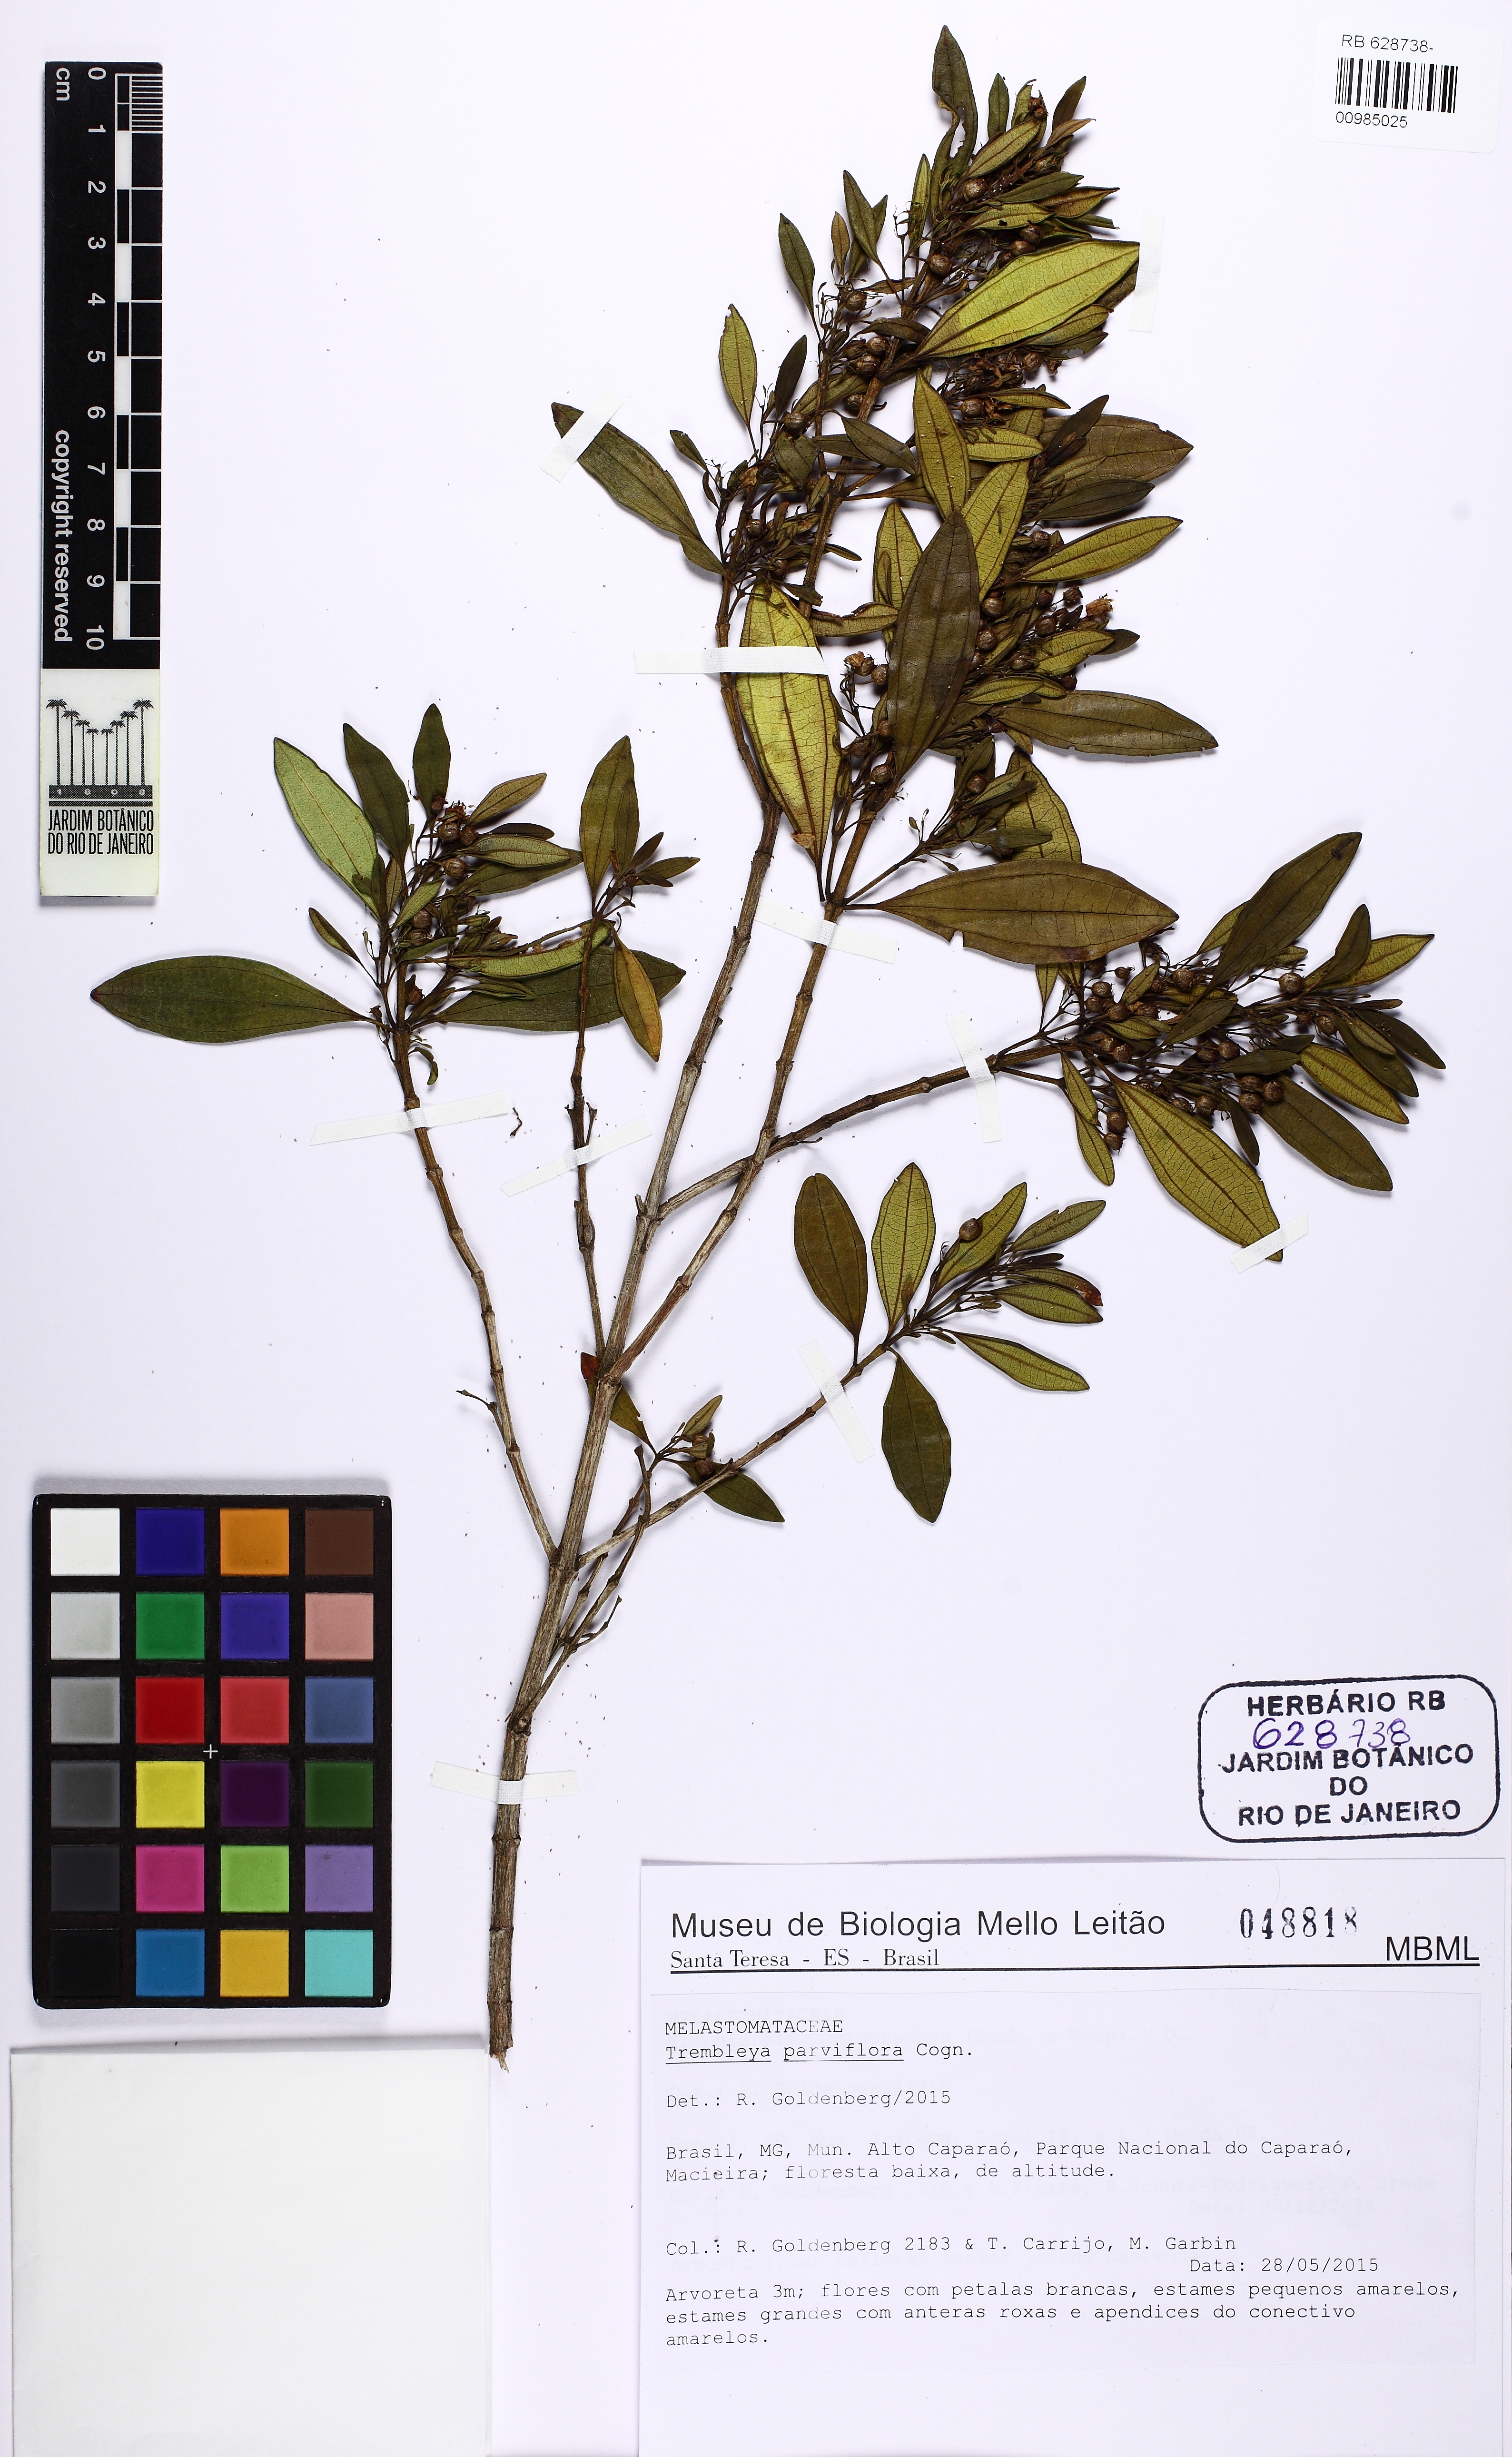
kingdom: Plantae
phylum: Tracheophyta
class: Magnoliopsida
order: Myrtales
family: Melastomataceae
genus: Microlicia
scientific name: Microlicia parviflora
